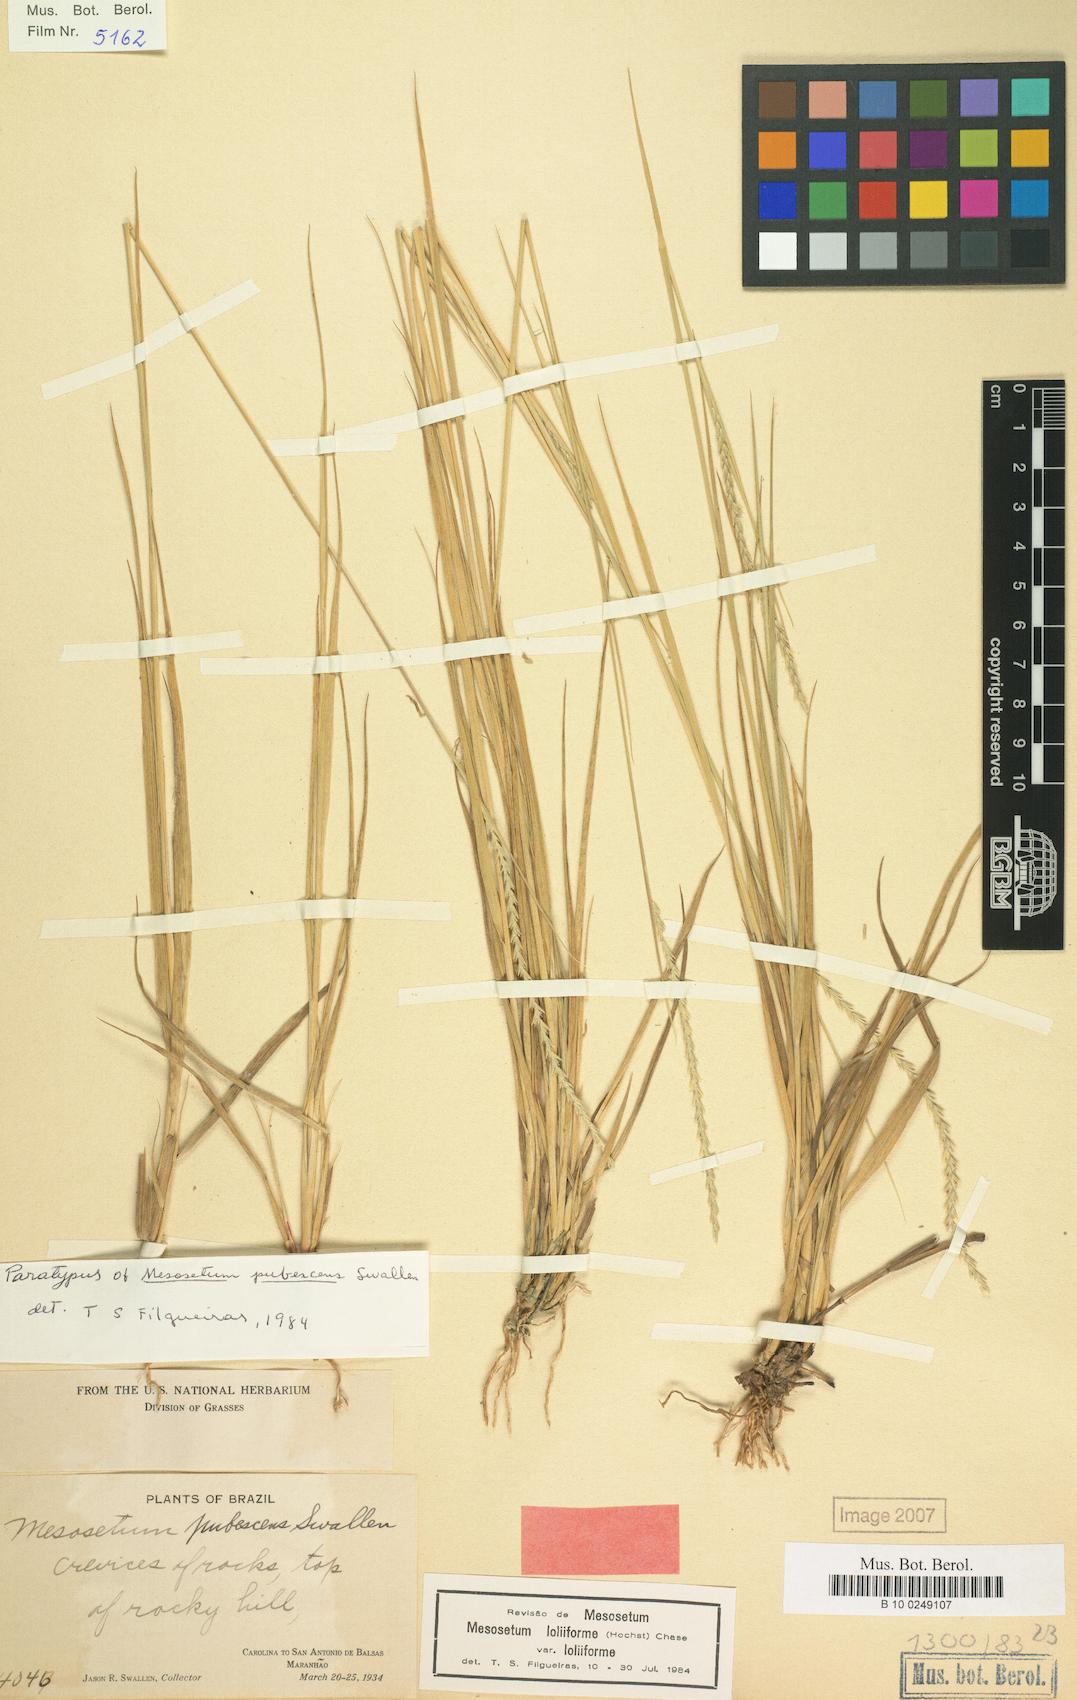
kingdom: Plantae
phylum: Tracheophyta
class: Liliopsida
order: Poales
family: Poaceae
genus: Mesosetum
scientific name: Mesosetum loliiforme
